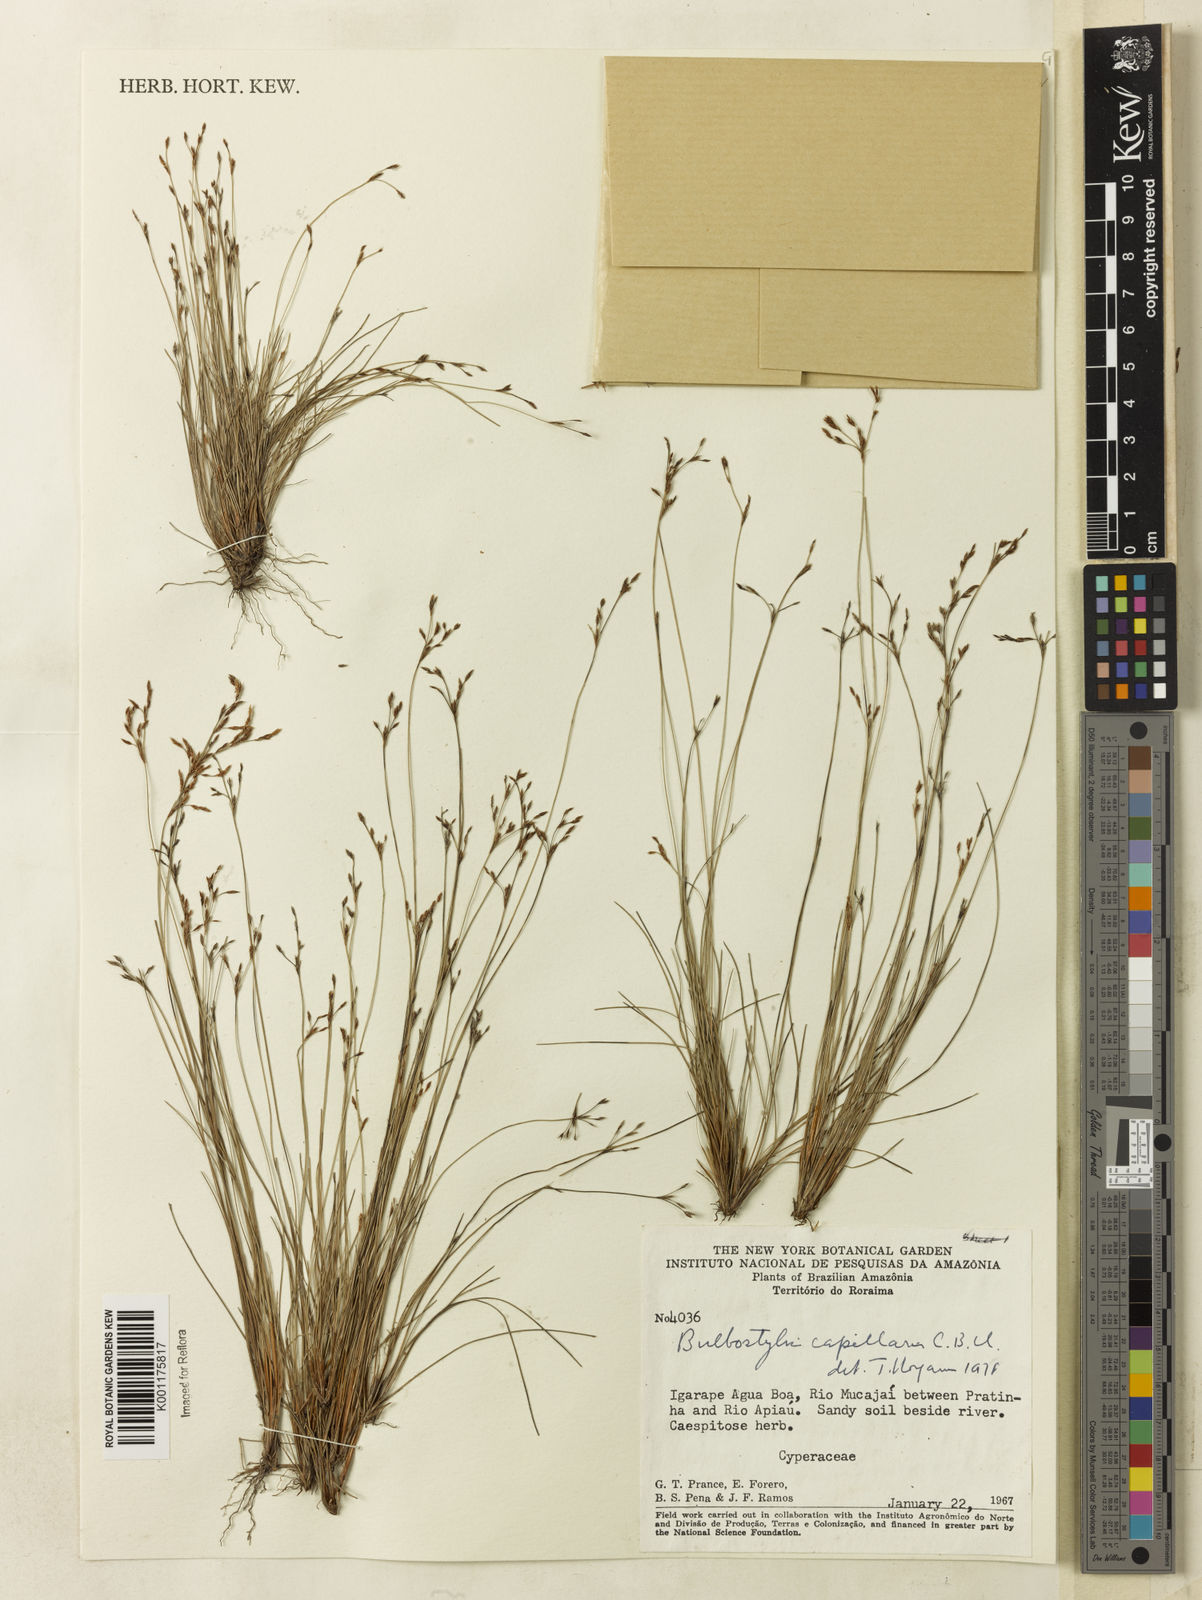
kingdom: Plantae
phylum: Tracheophyta
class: Liliopsida
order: Poales
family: Cyperaceae
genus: Bulbostylis
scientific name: Bulbostylis capillaris
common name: Densetuft hairsedge
